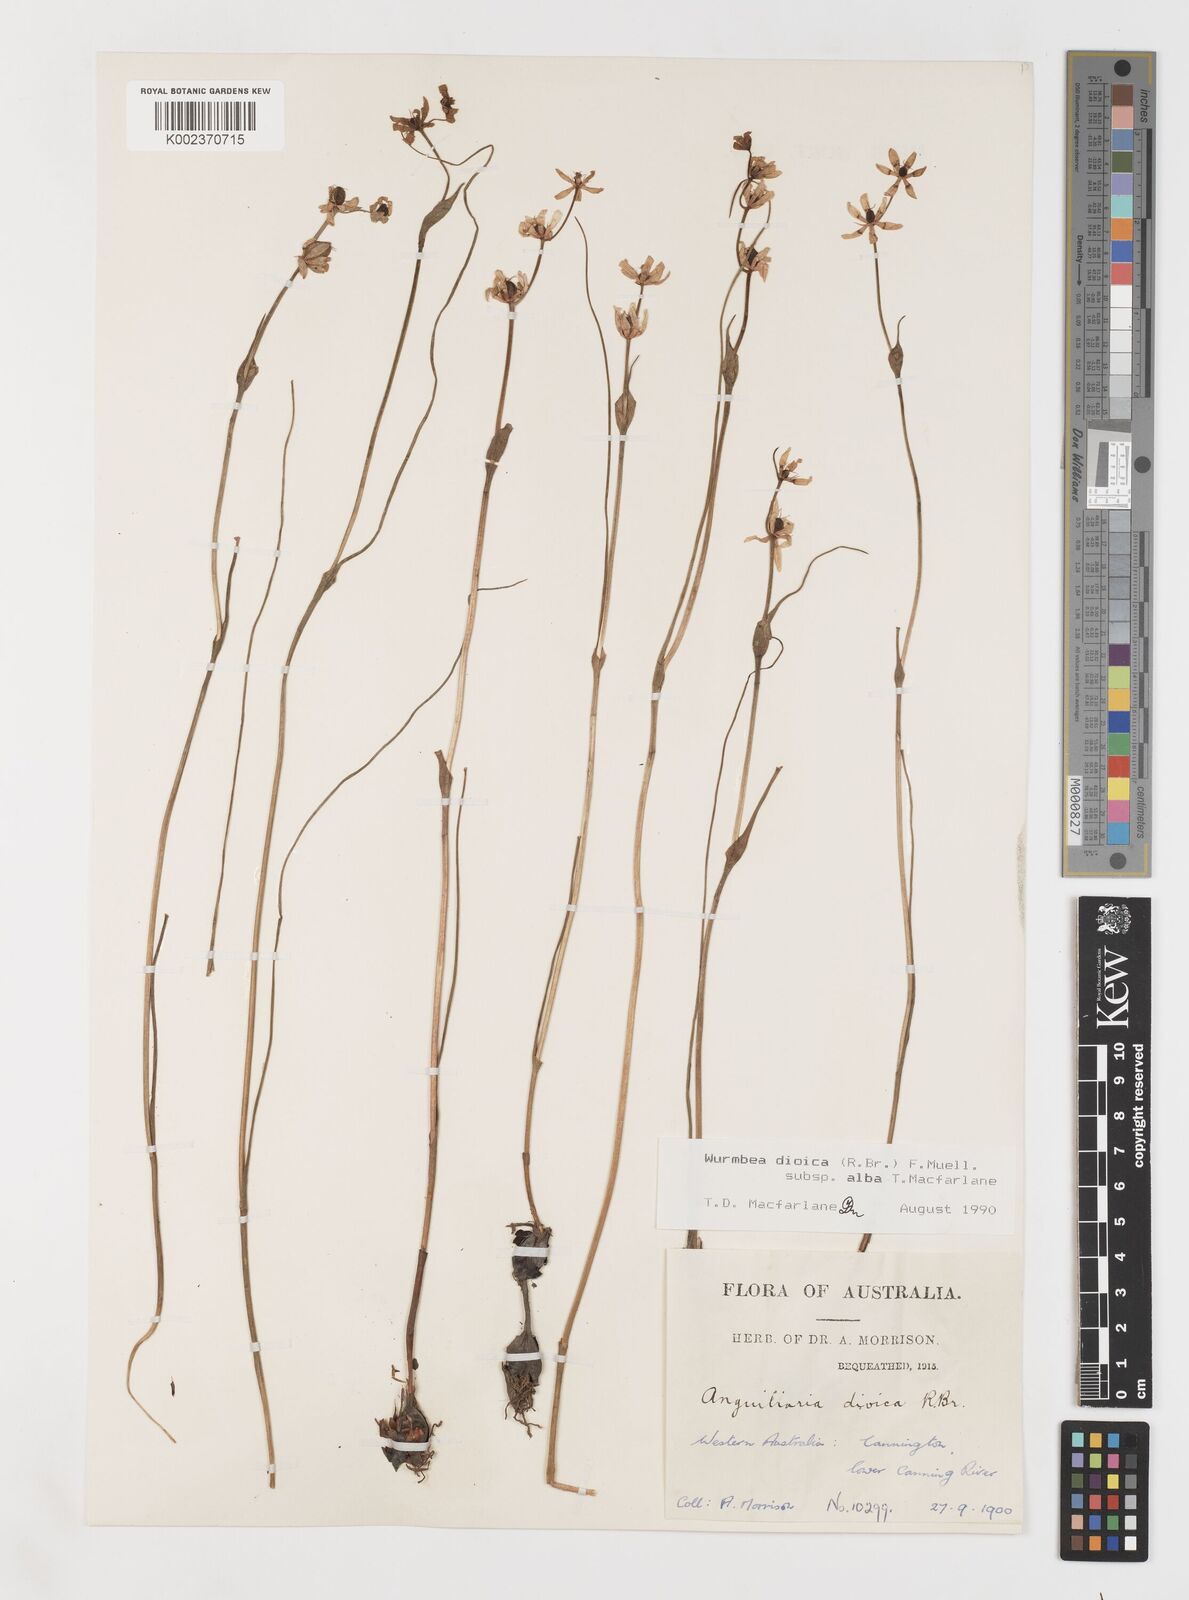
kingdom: Plantae
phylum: Tracheophyta
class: Liliopsida
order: Liliales
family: Colchicaceae
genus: Wurmbea
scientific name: Wurmbea dioica
